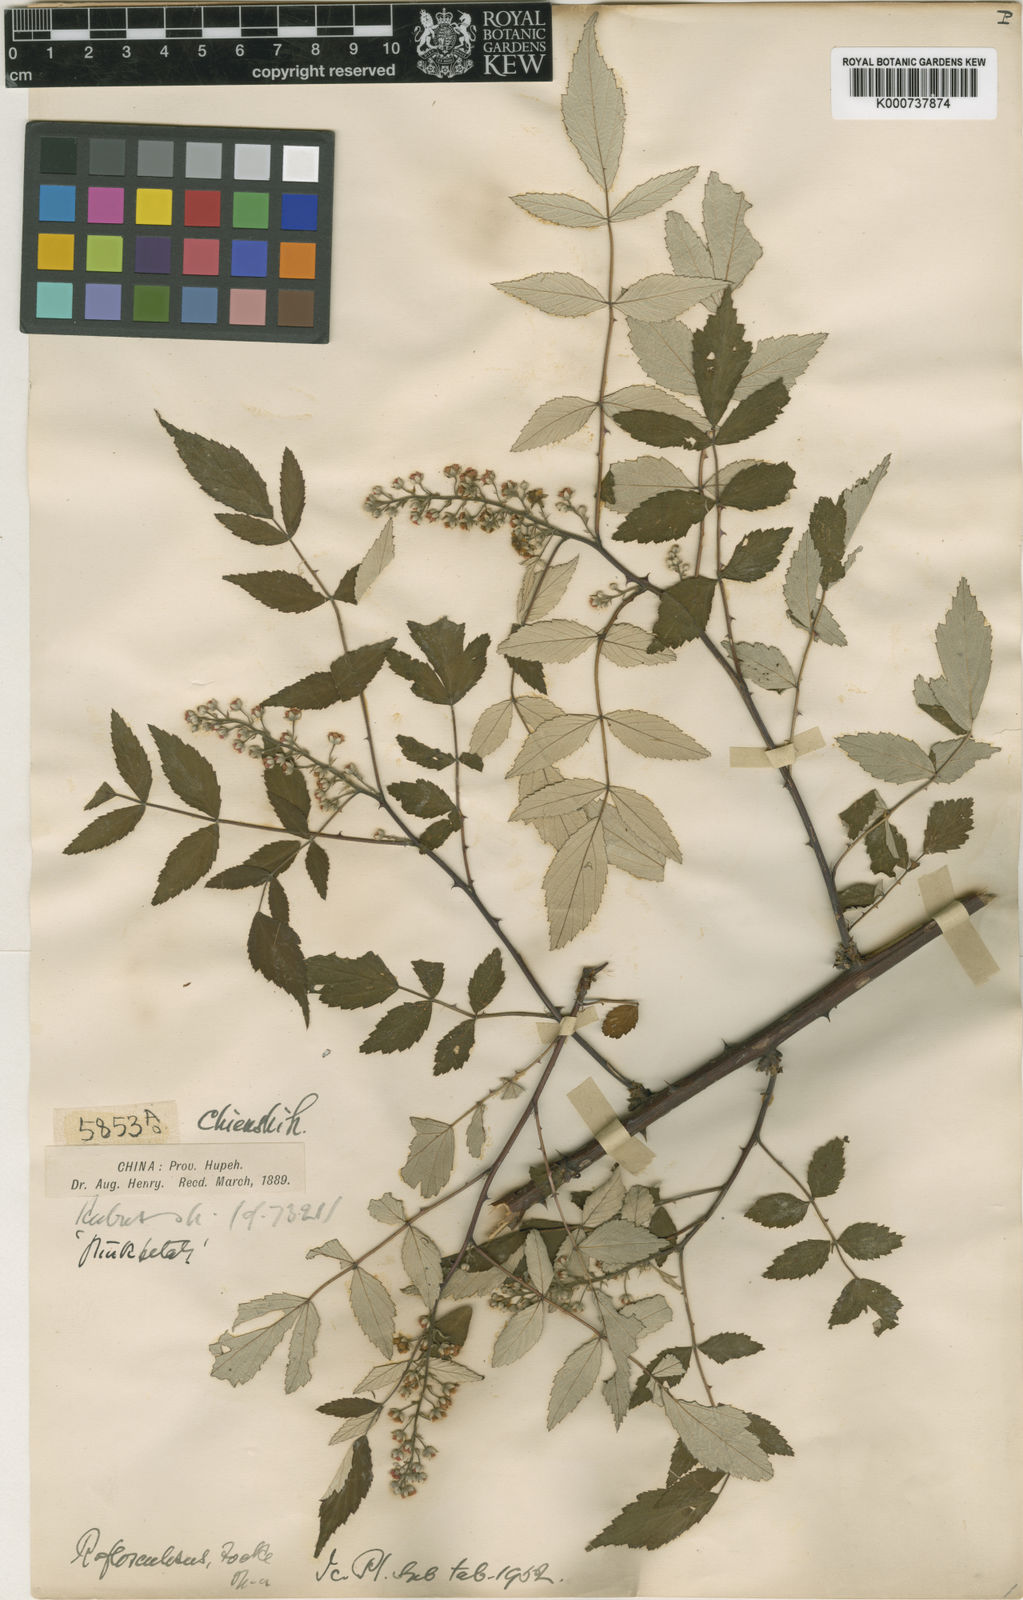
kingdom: Plantae
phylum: Tracheophyta
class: Magnoliopsida
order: Rosales
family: Rosaceae
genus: Rubus
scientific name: Rubus flosculosus
